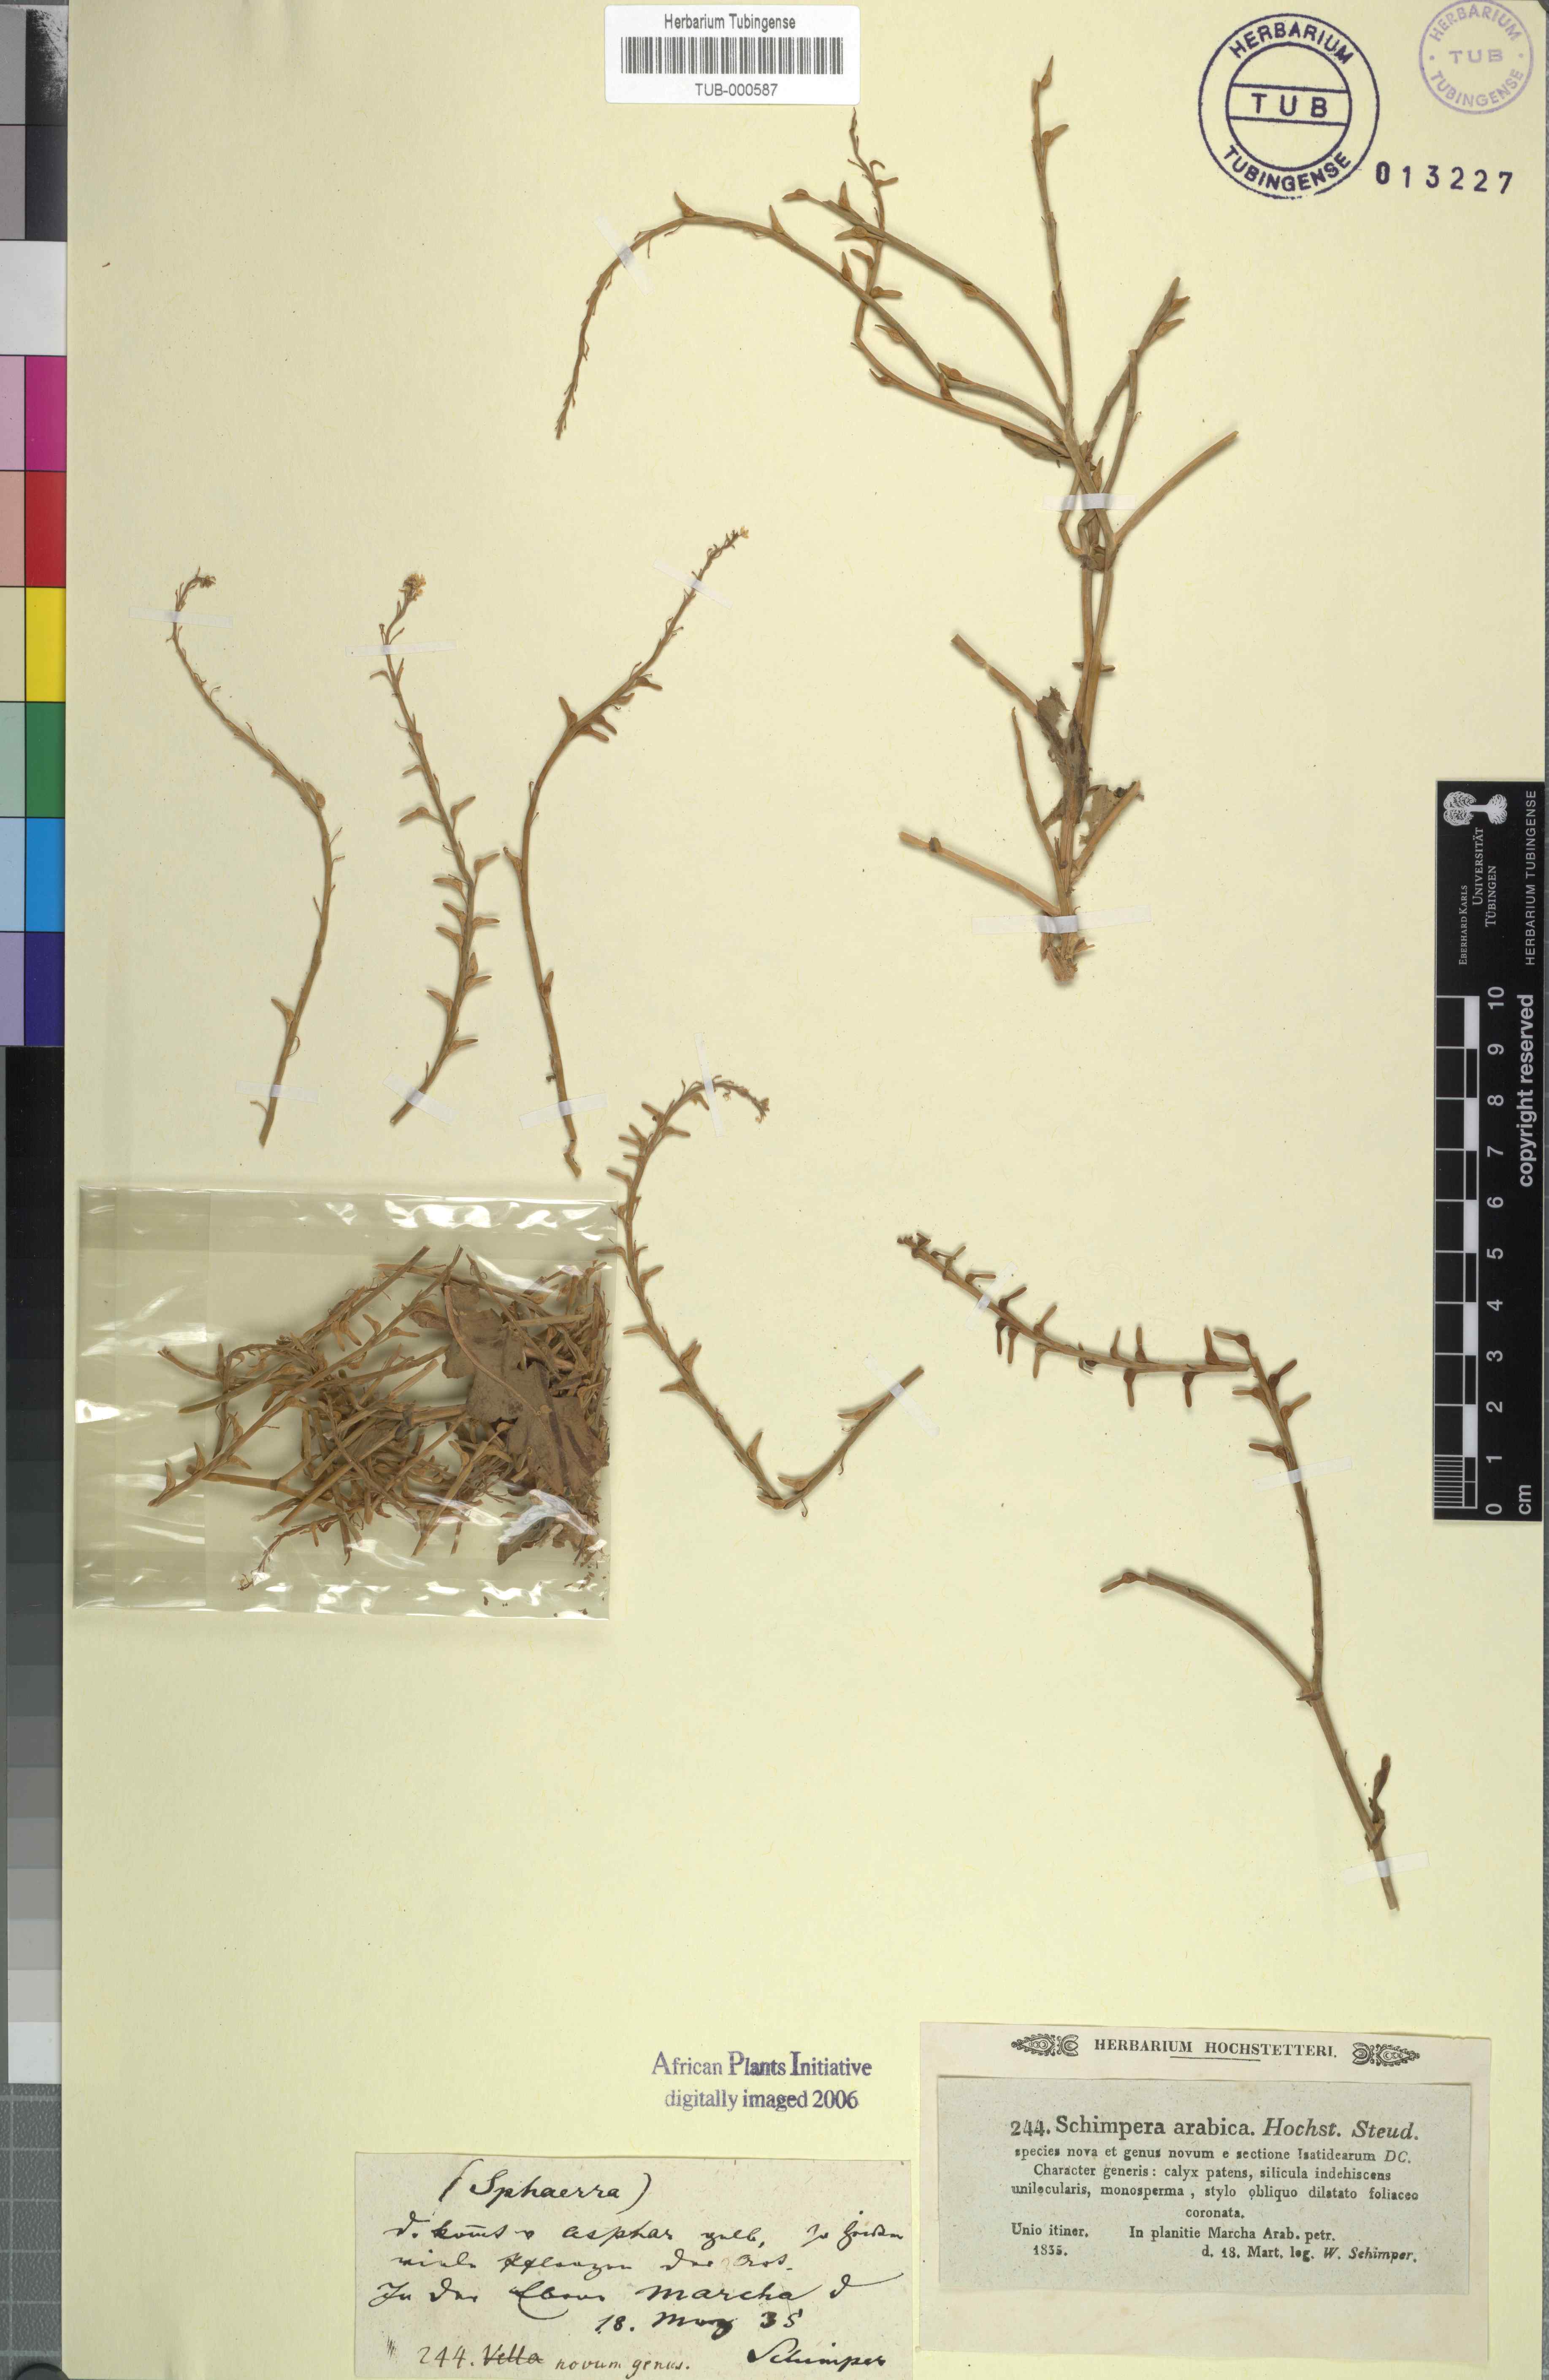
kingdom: Plantae
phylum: Tracheophyta
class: Magnoliopsida
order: Brassicales
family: Brassicaceae
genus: Schimpera
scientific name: Schimpera arabica
